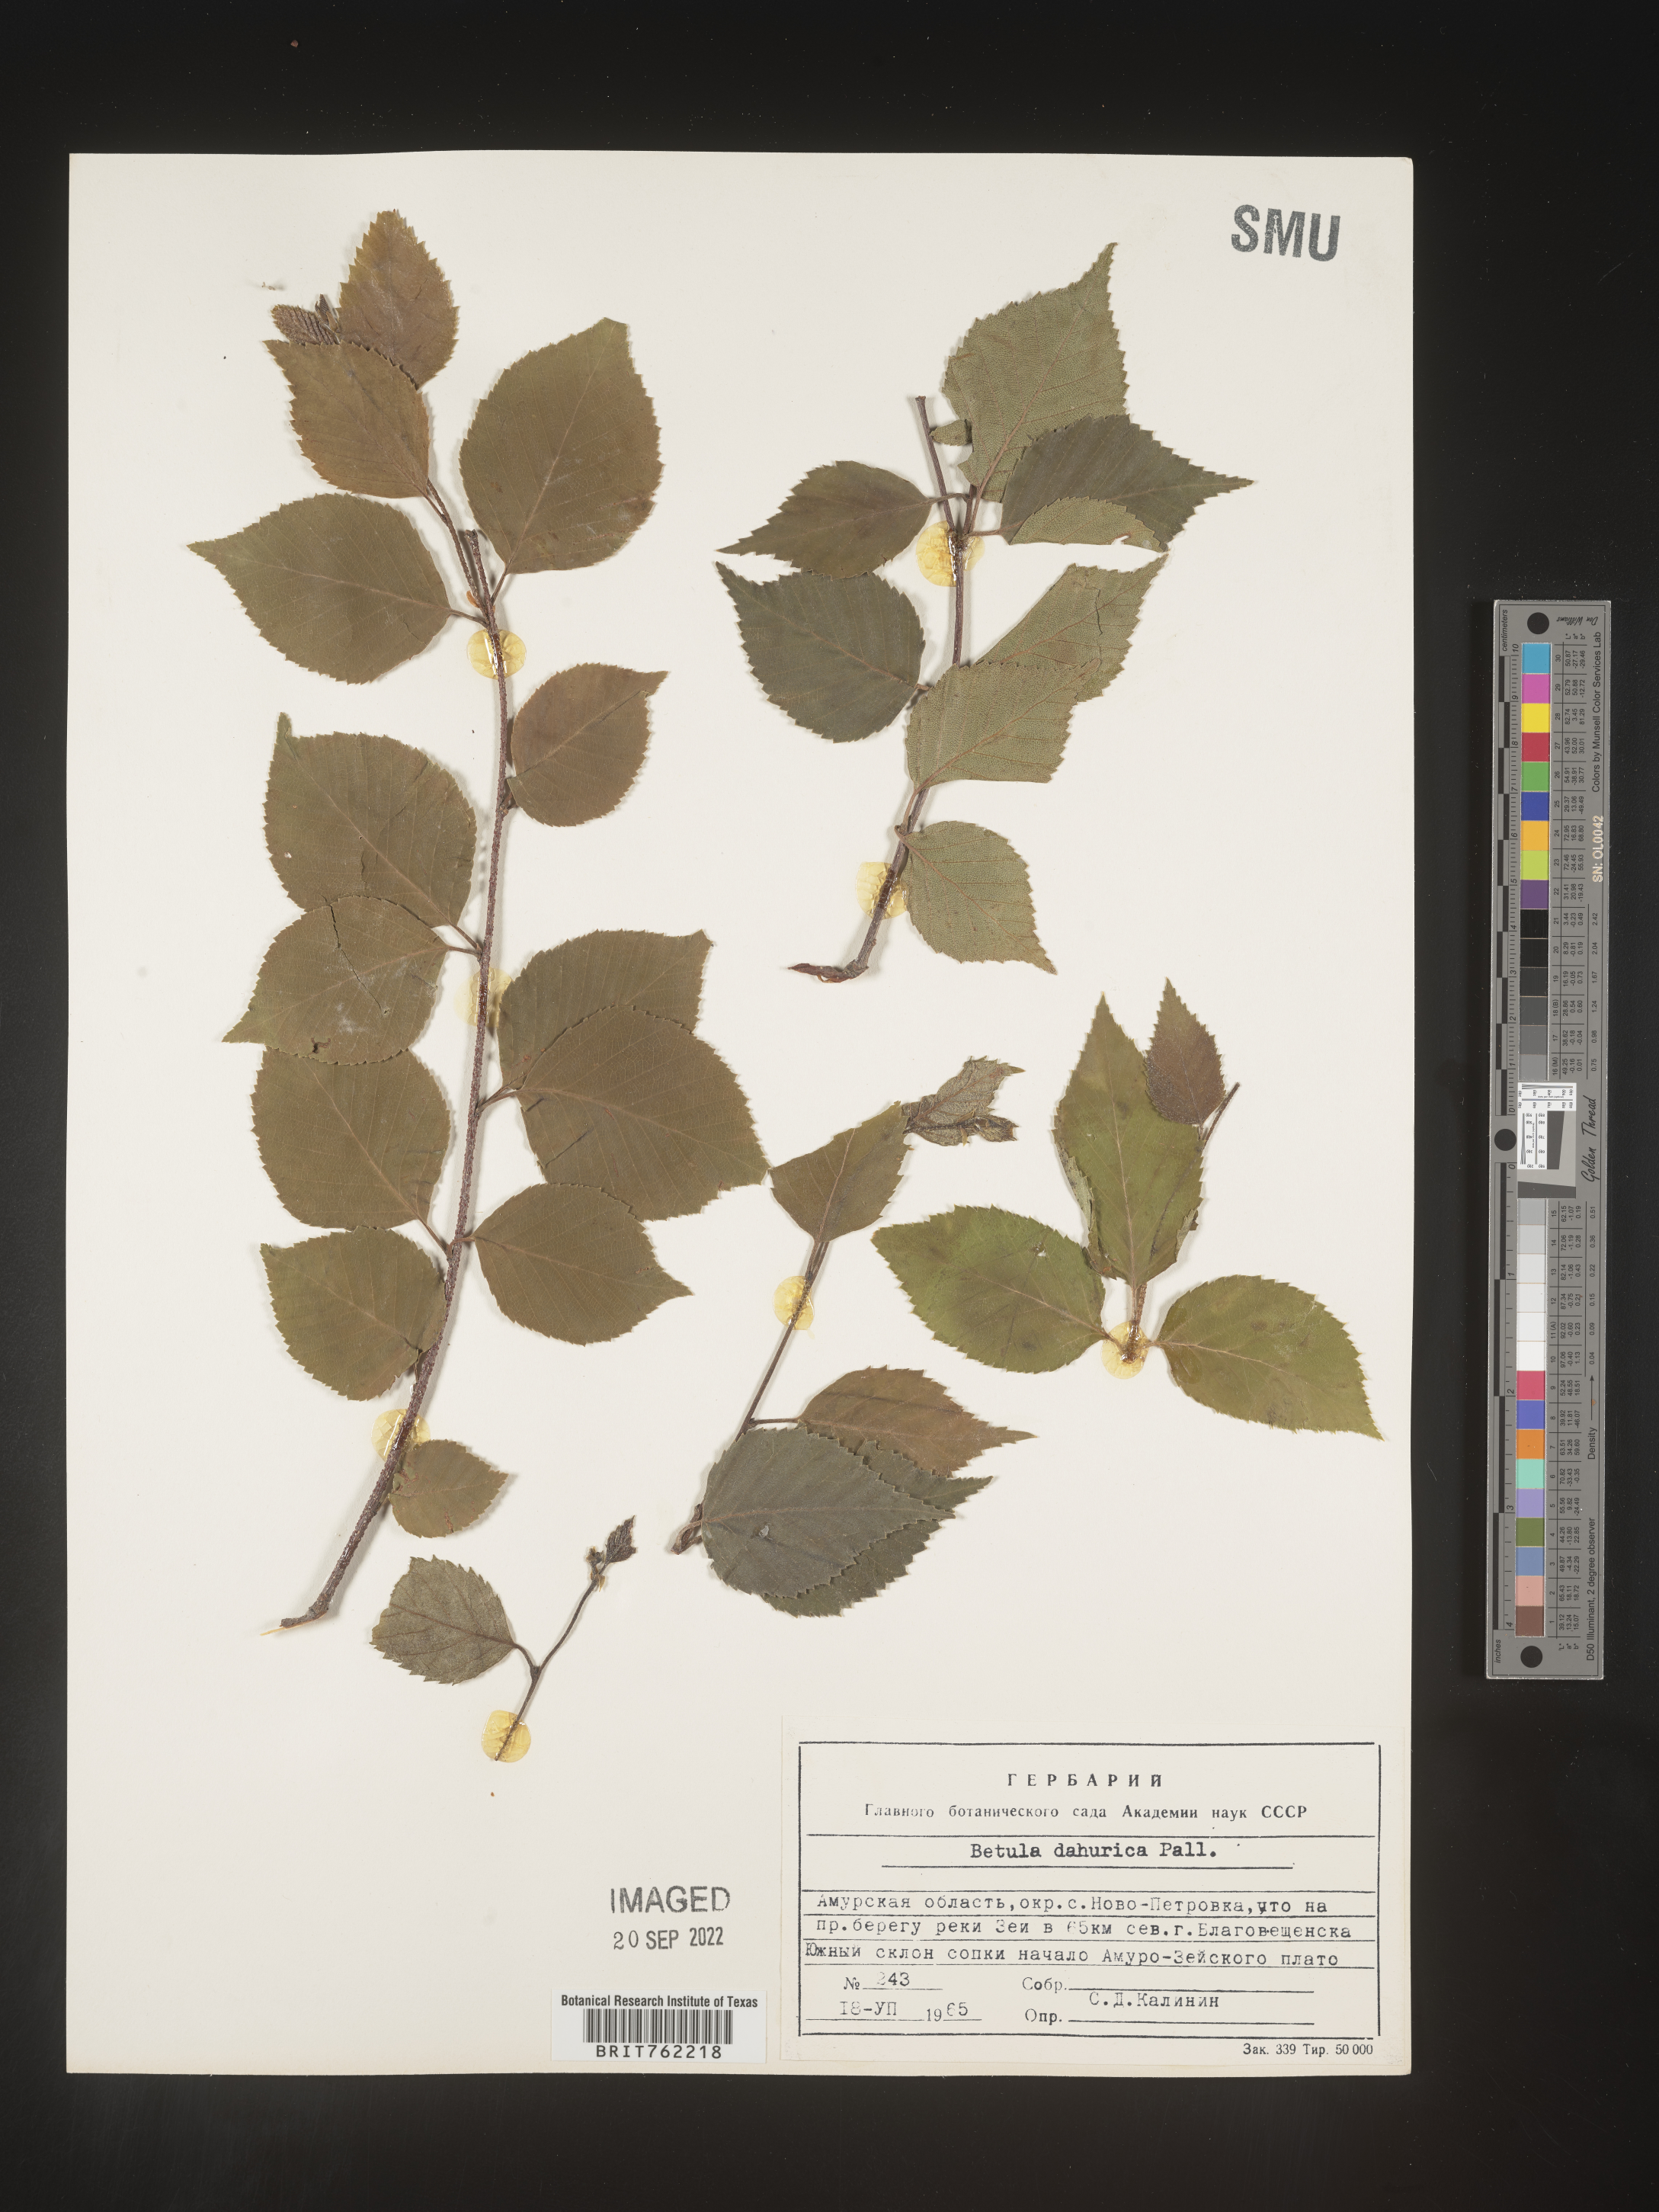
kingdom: Plantae
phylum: Tracheophyta
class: Magnoliopsida
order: Fagales
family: Betulaceae
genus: Betula
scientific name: Betula
